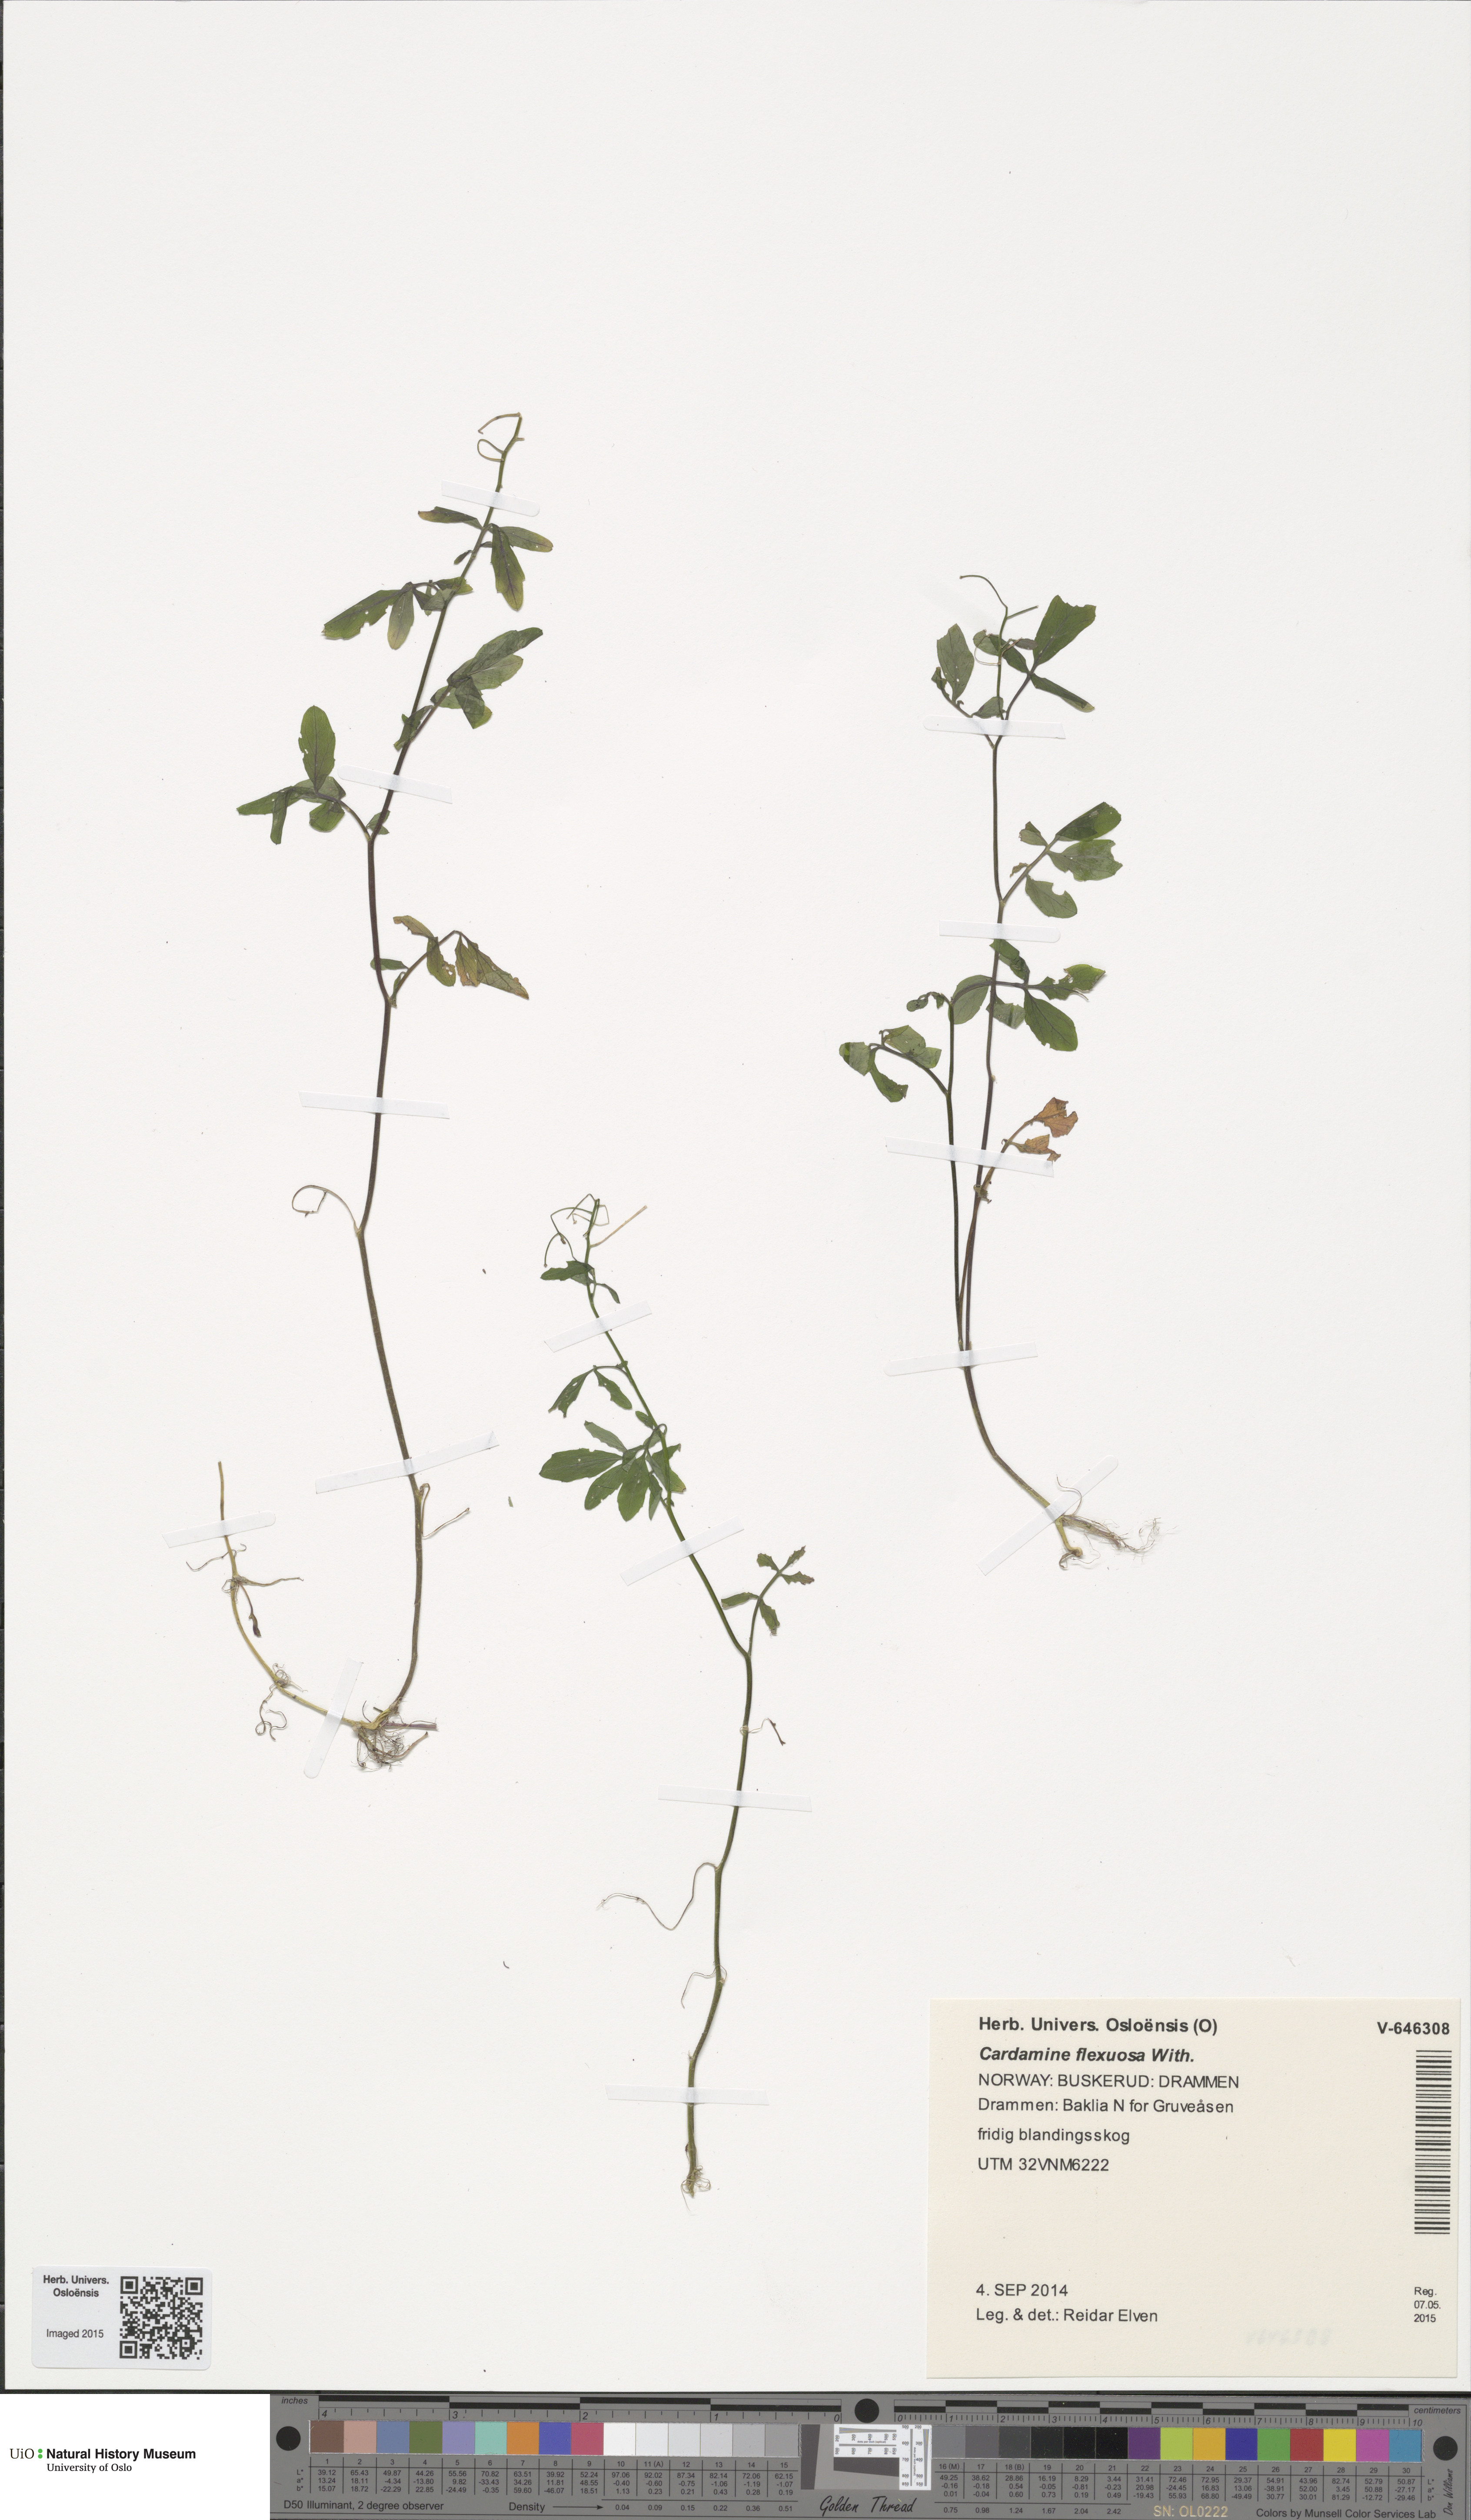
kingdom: Plantae
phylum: Tracheophyta
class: Magnoliopsida
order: Brassicales
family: Brassicaceae
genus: Cardamine
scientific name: Cardamine flexuosa
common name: Woodland bittercress
